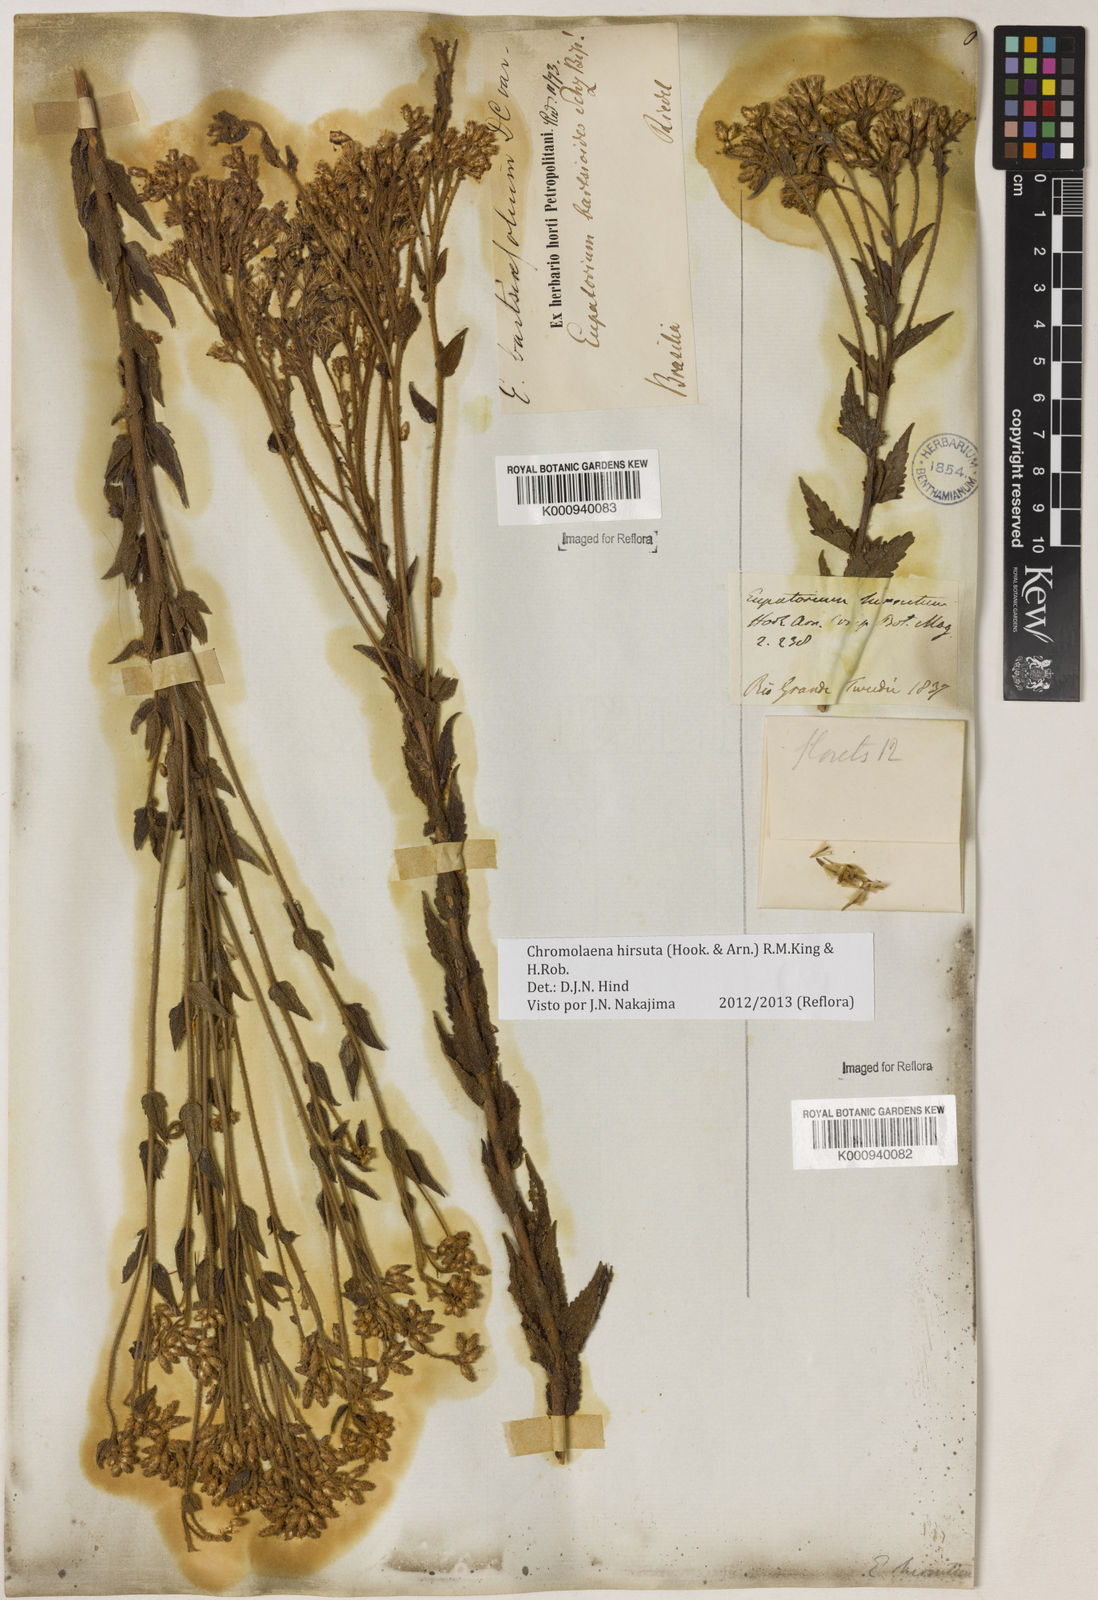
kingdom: Plantae
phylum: Tracheophyta
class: Magnoliopsida
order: Asterales
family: Asteraceae
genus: Chromolaena
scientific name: Chromolaena hirsuta
